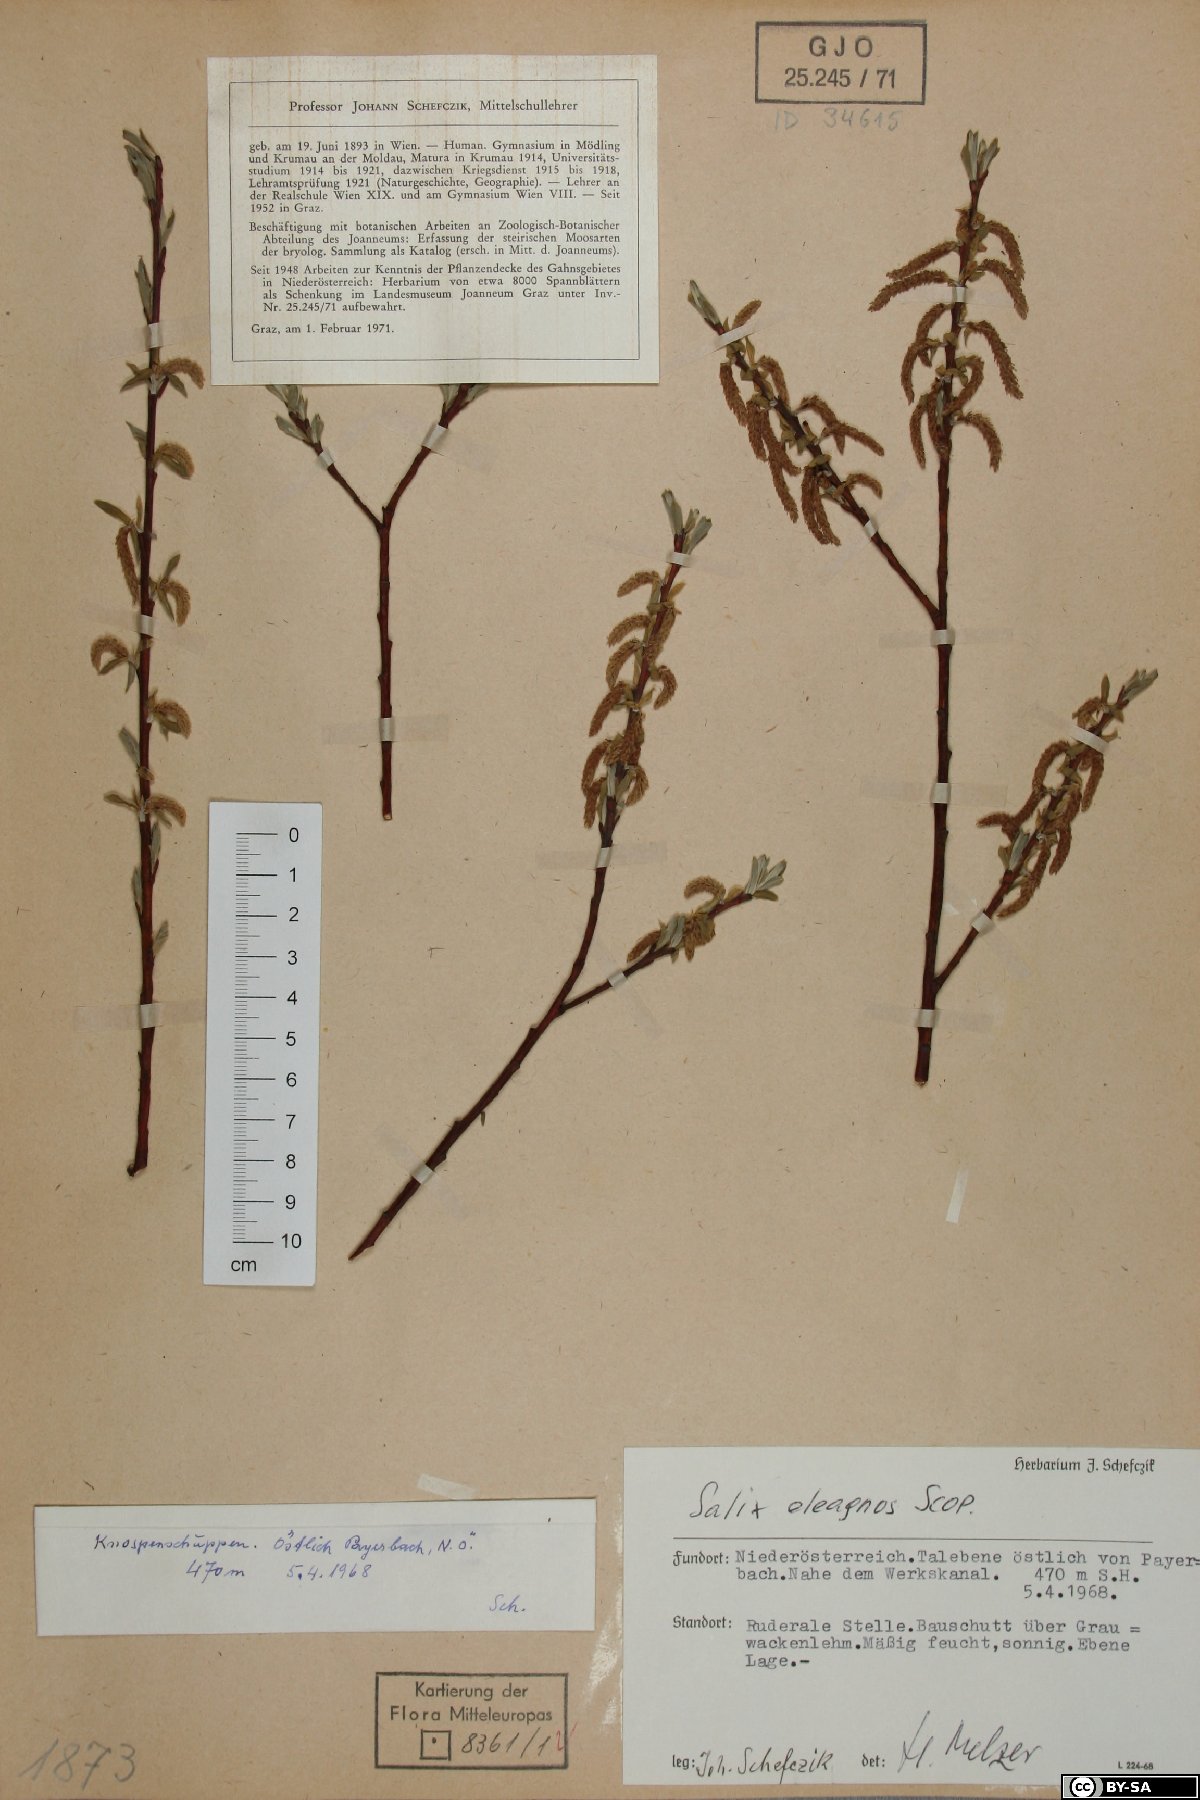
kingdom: Plantae
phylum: Tracheophyta
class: Magnoliopsida
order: Malpighiales
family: Salicaceae
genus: Salix
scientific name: Salix eleagnos
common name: Elaeagnus willow
